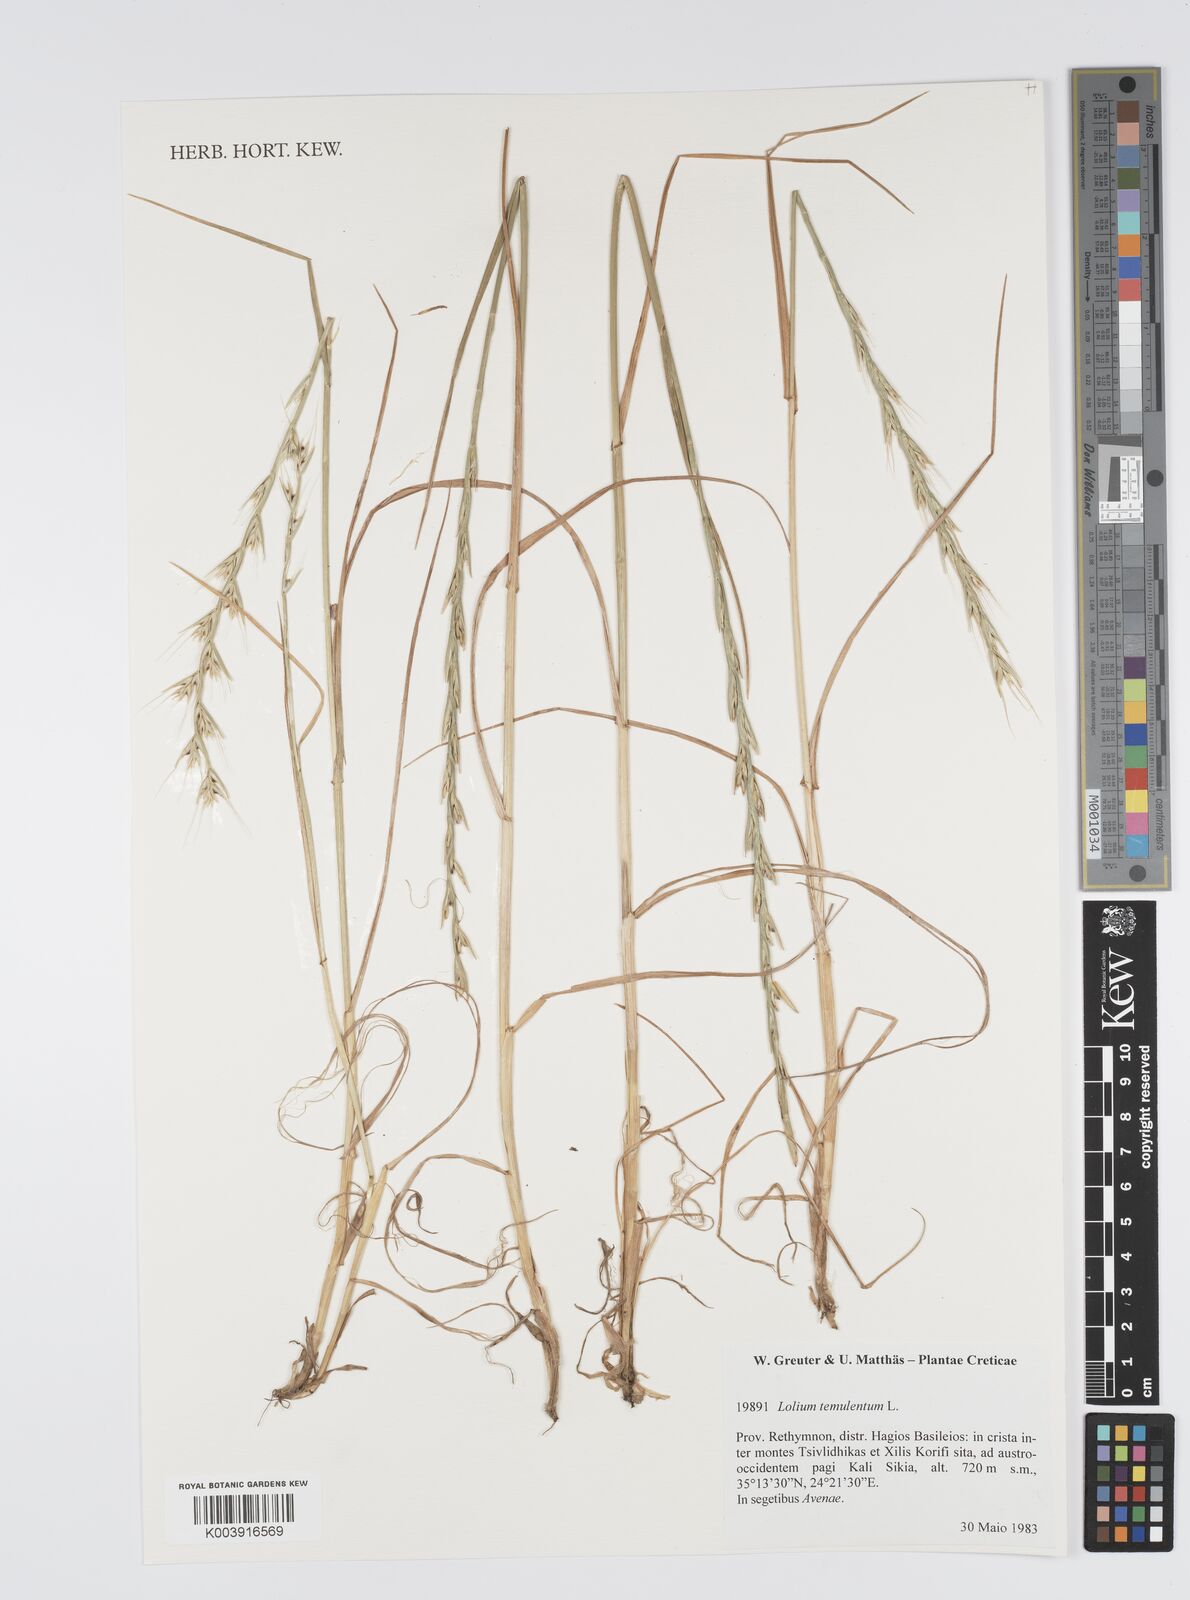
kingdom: Plantae
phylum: Tracheophyta
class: Liliopsida
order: Poales
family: Poaceae
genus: Lolium
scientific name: Lolium temulentum
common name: Darnel
